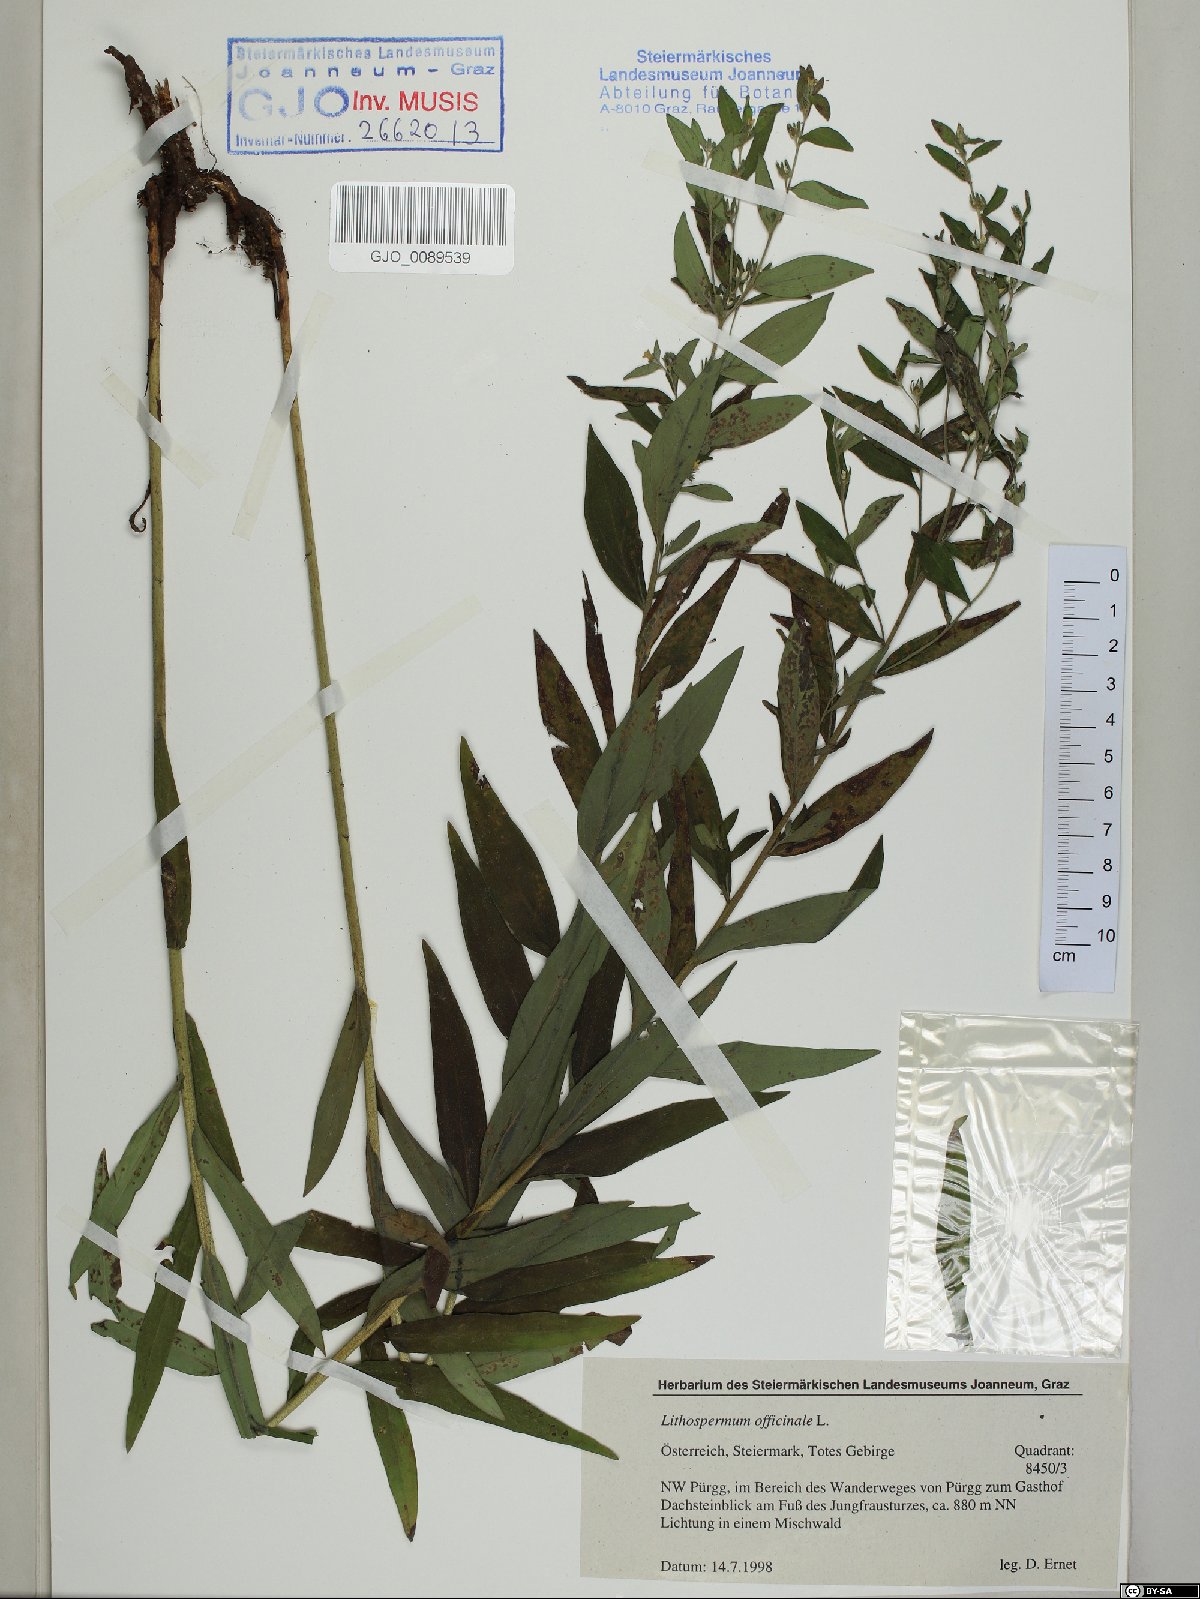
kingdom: Plantae
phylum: Tracheophyta
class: Magnoliopsida
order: Boraginales
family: Boraginaceae
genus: Lithospermum
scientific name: Lithospermum officinale
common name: Common gromwell
